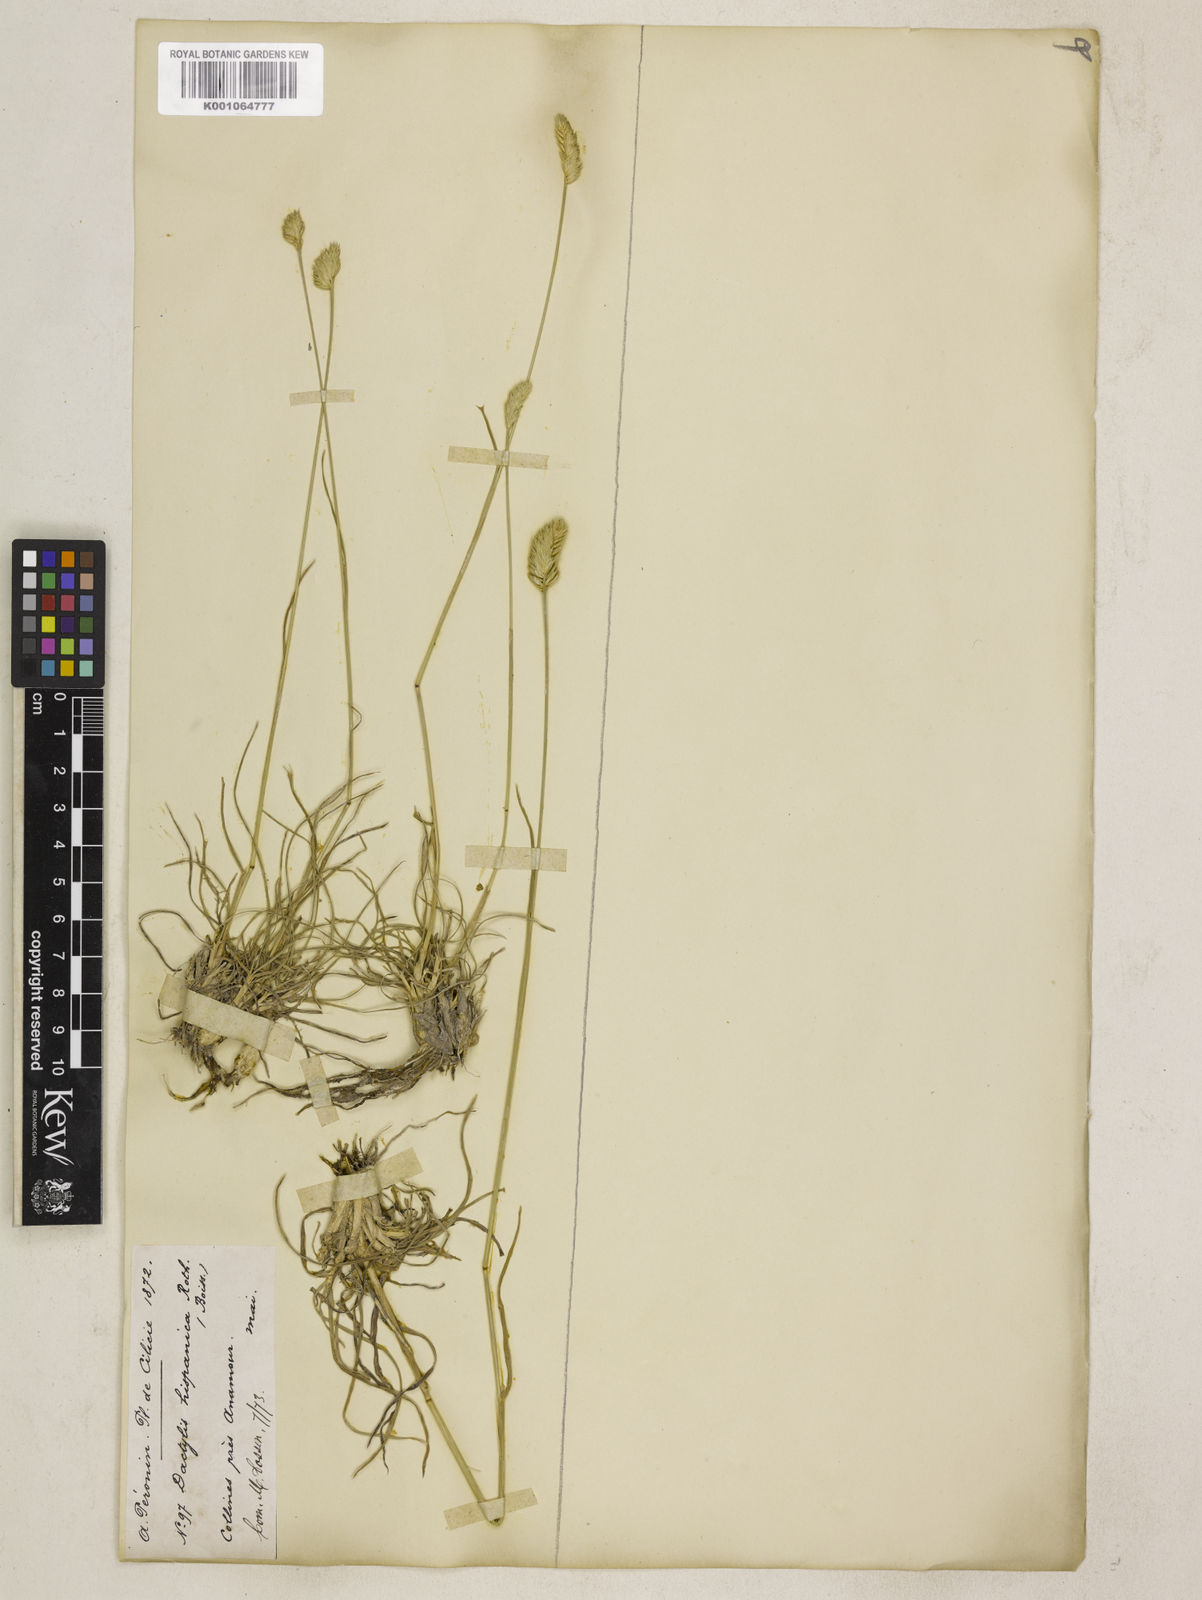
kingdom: Plantae
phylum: Tracheophyta
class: Liliopsida
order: Poales
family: Poaceae
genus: Dactylis
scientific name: Dactylis glomerata
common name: Orchardgrass
